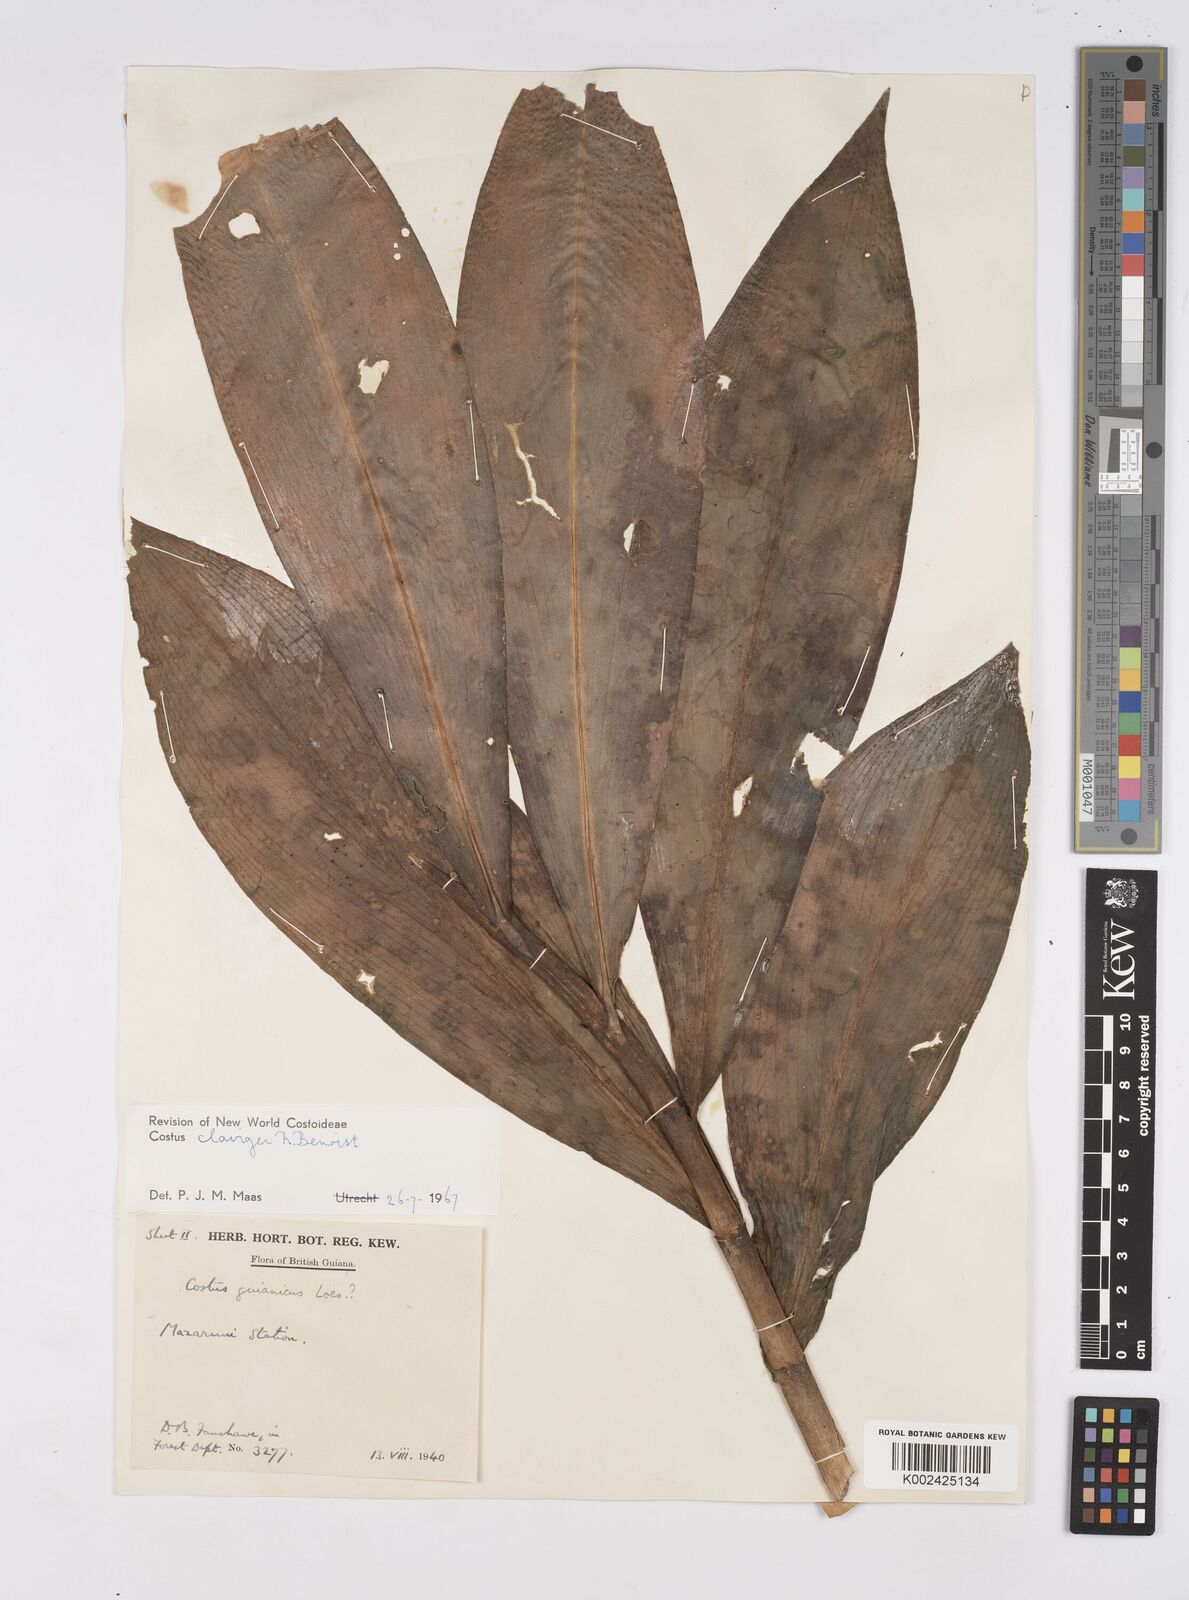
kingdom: Plantae
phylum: Tracheophyta
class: Liliopsida
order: Zingiberales
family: Costaceae
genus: Costus
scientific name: Costus claviger
